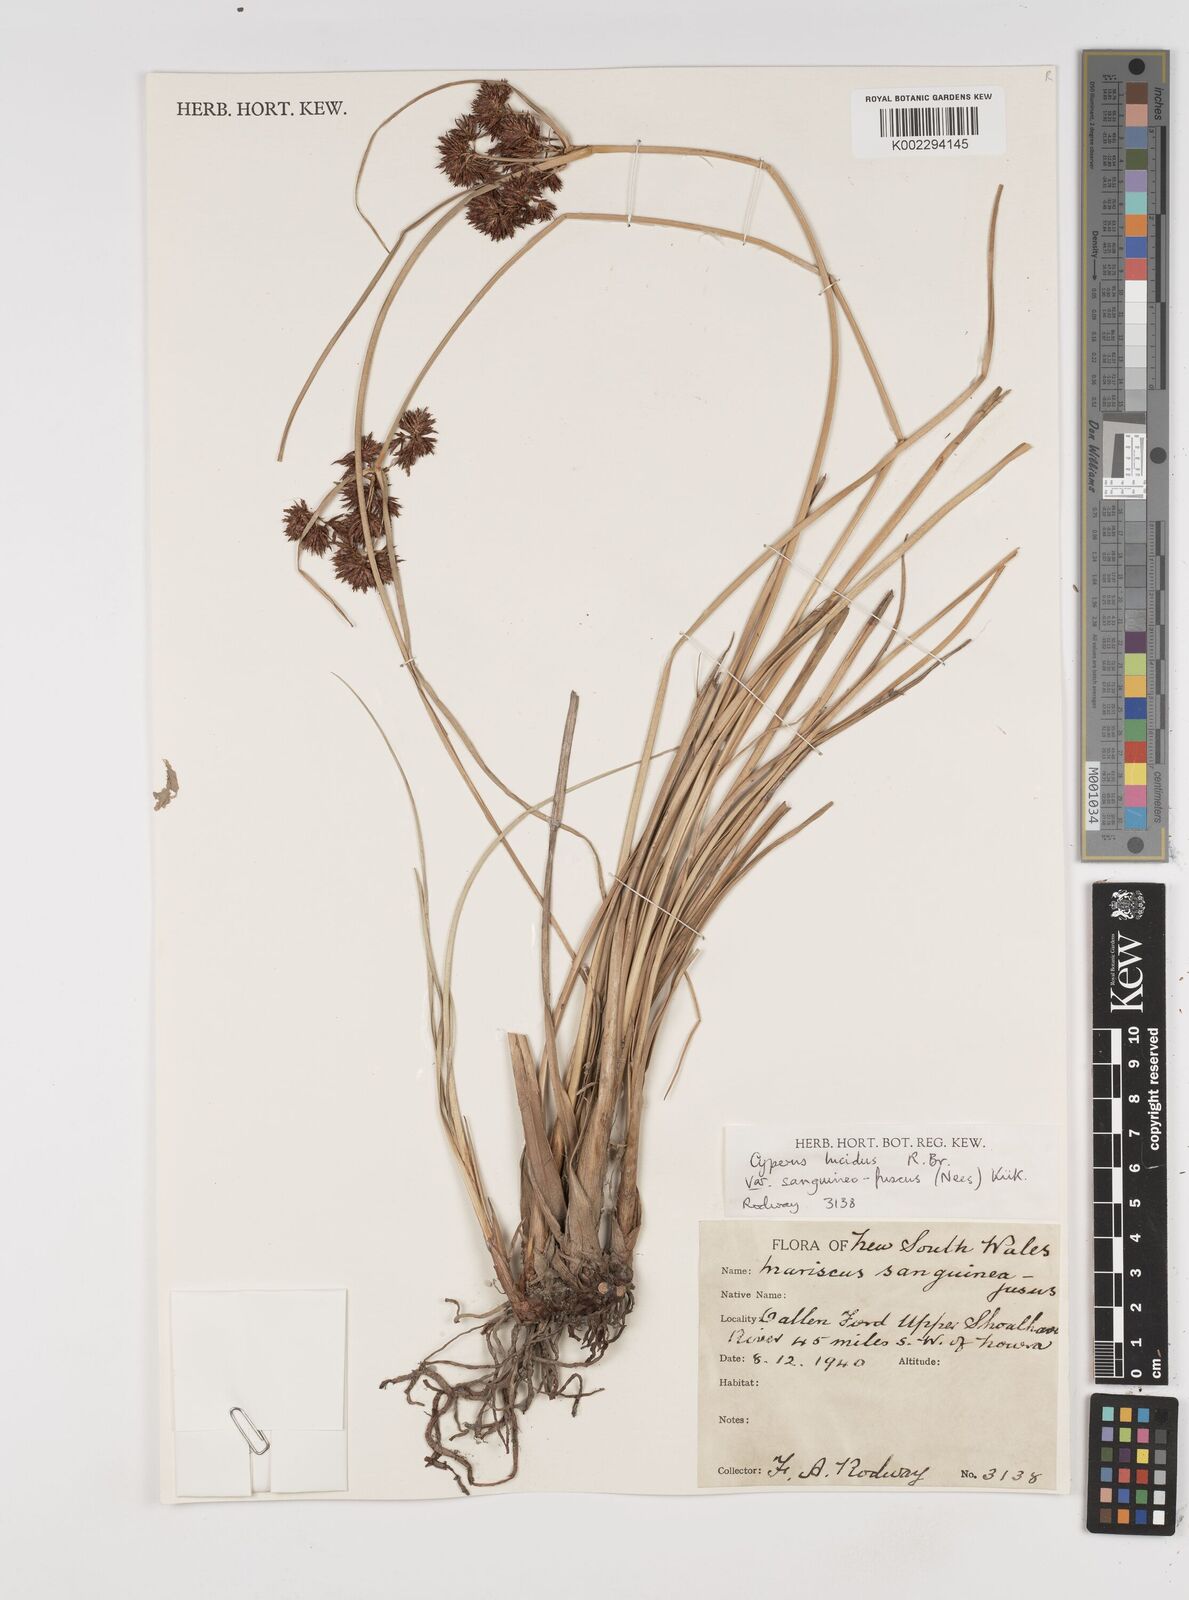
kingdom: Plantae
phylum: Tracheophyta
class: Liliopsida
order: Poales
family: Cyperaceae
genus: Cyperus
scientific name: Cyperus lucidus
